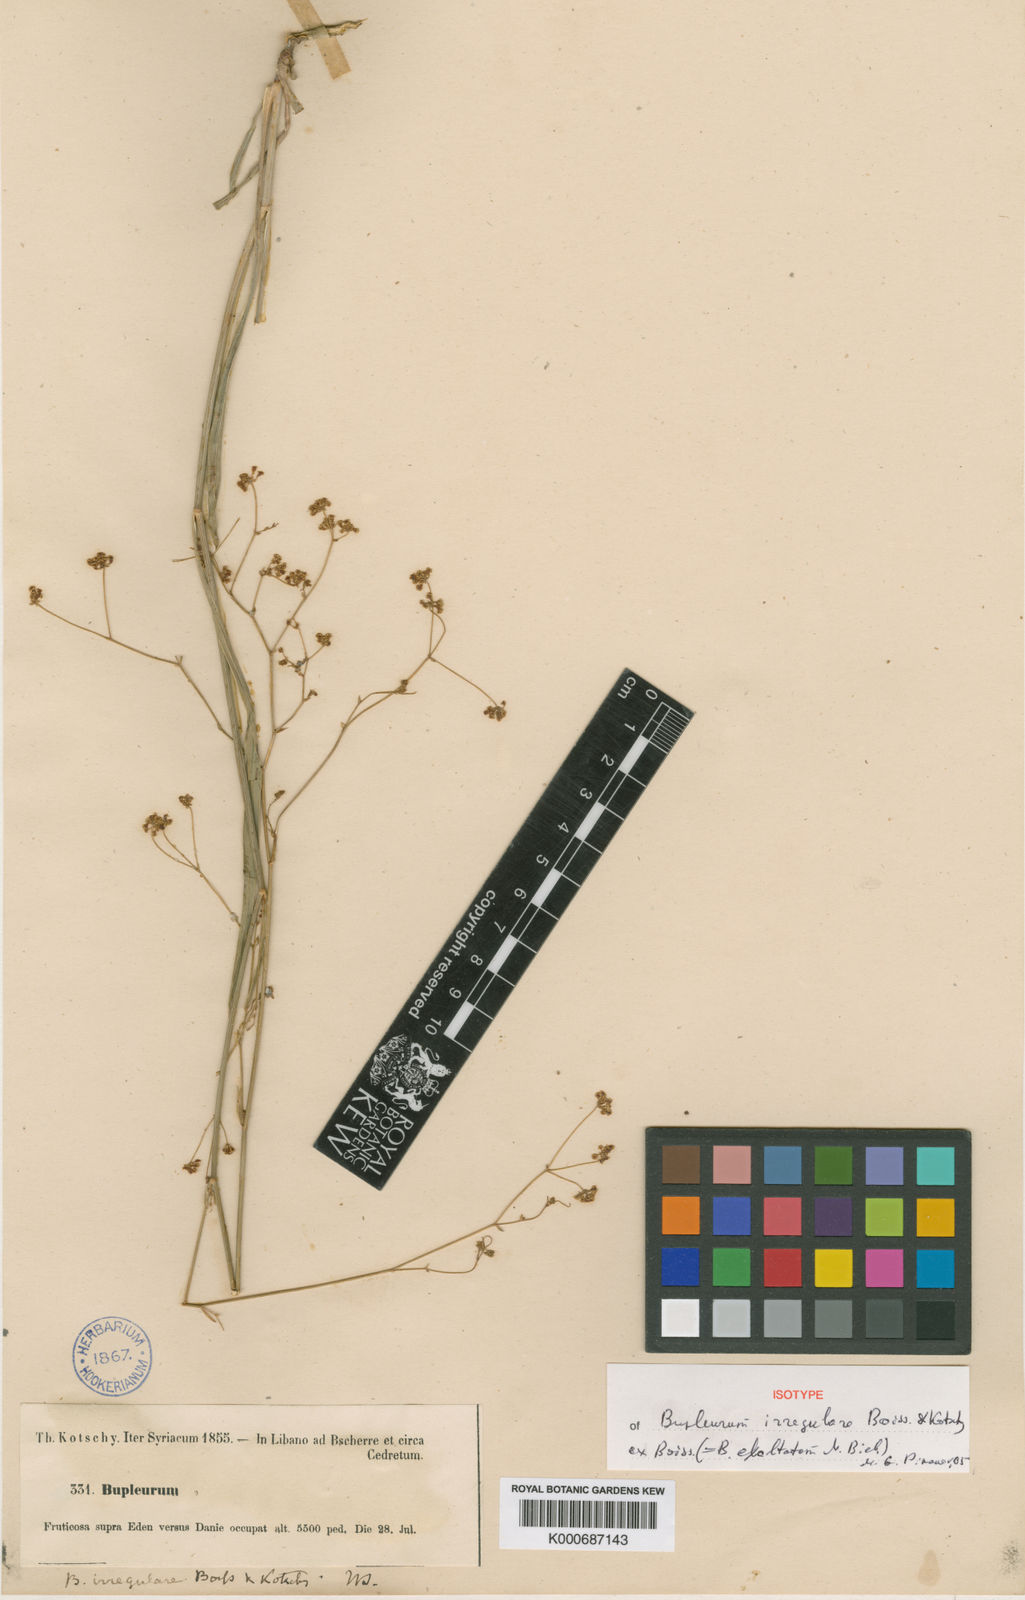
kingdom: Plantae
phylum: Tracheophyta
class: Magnoliopsida
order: Apiales
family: Apiaceae
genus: Bupleurum
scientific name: Bupleurum falcatum
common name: Sickle-leaved hare's-ear
